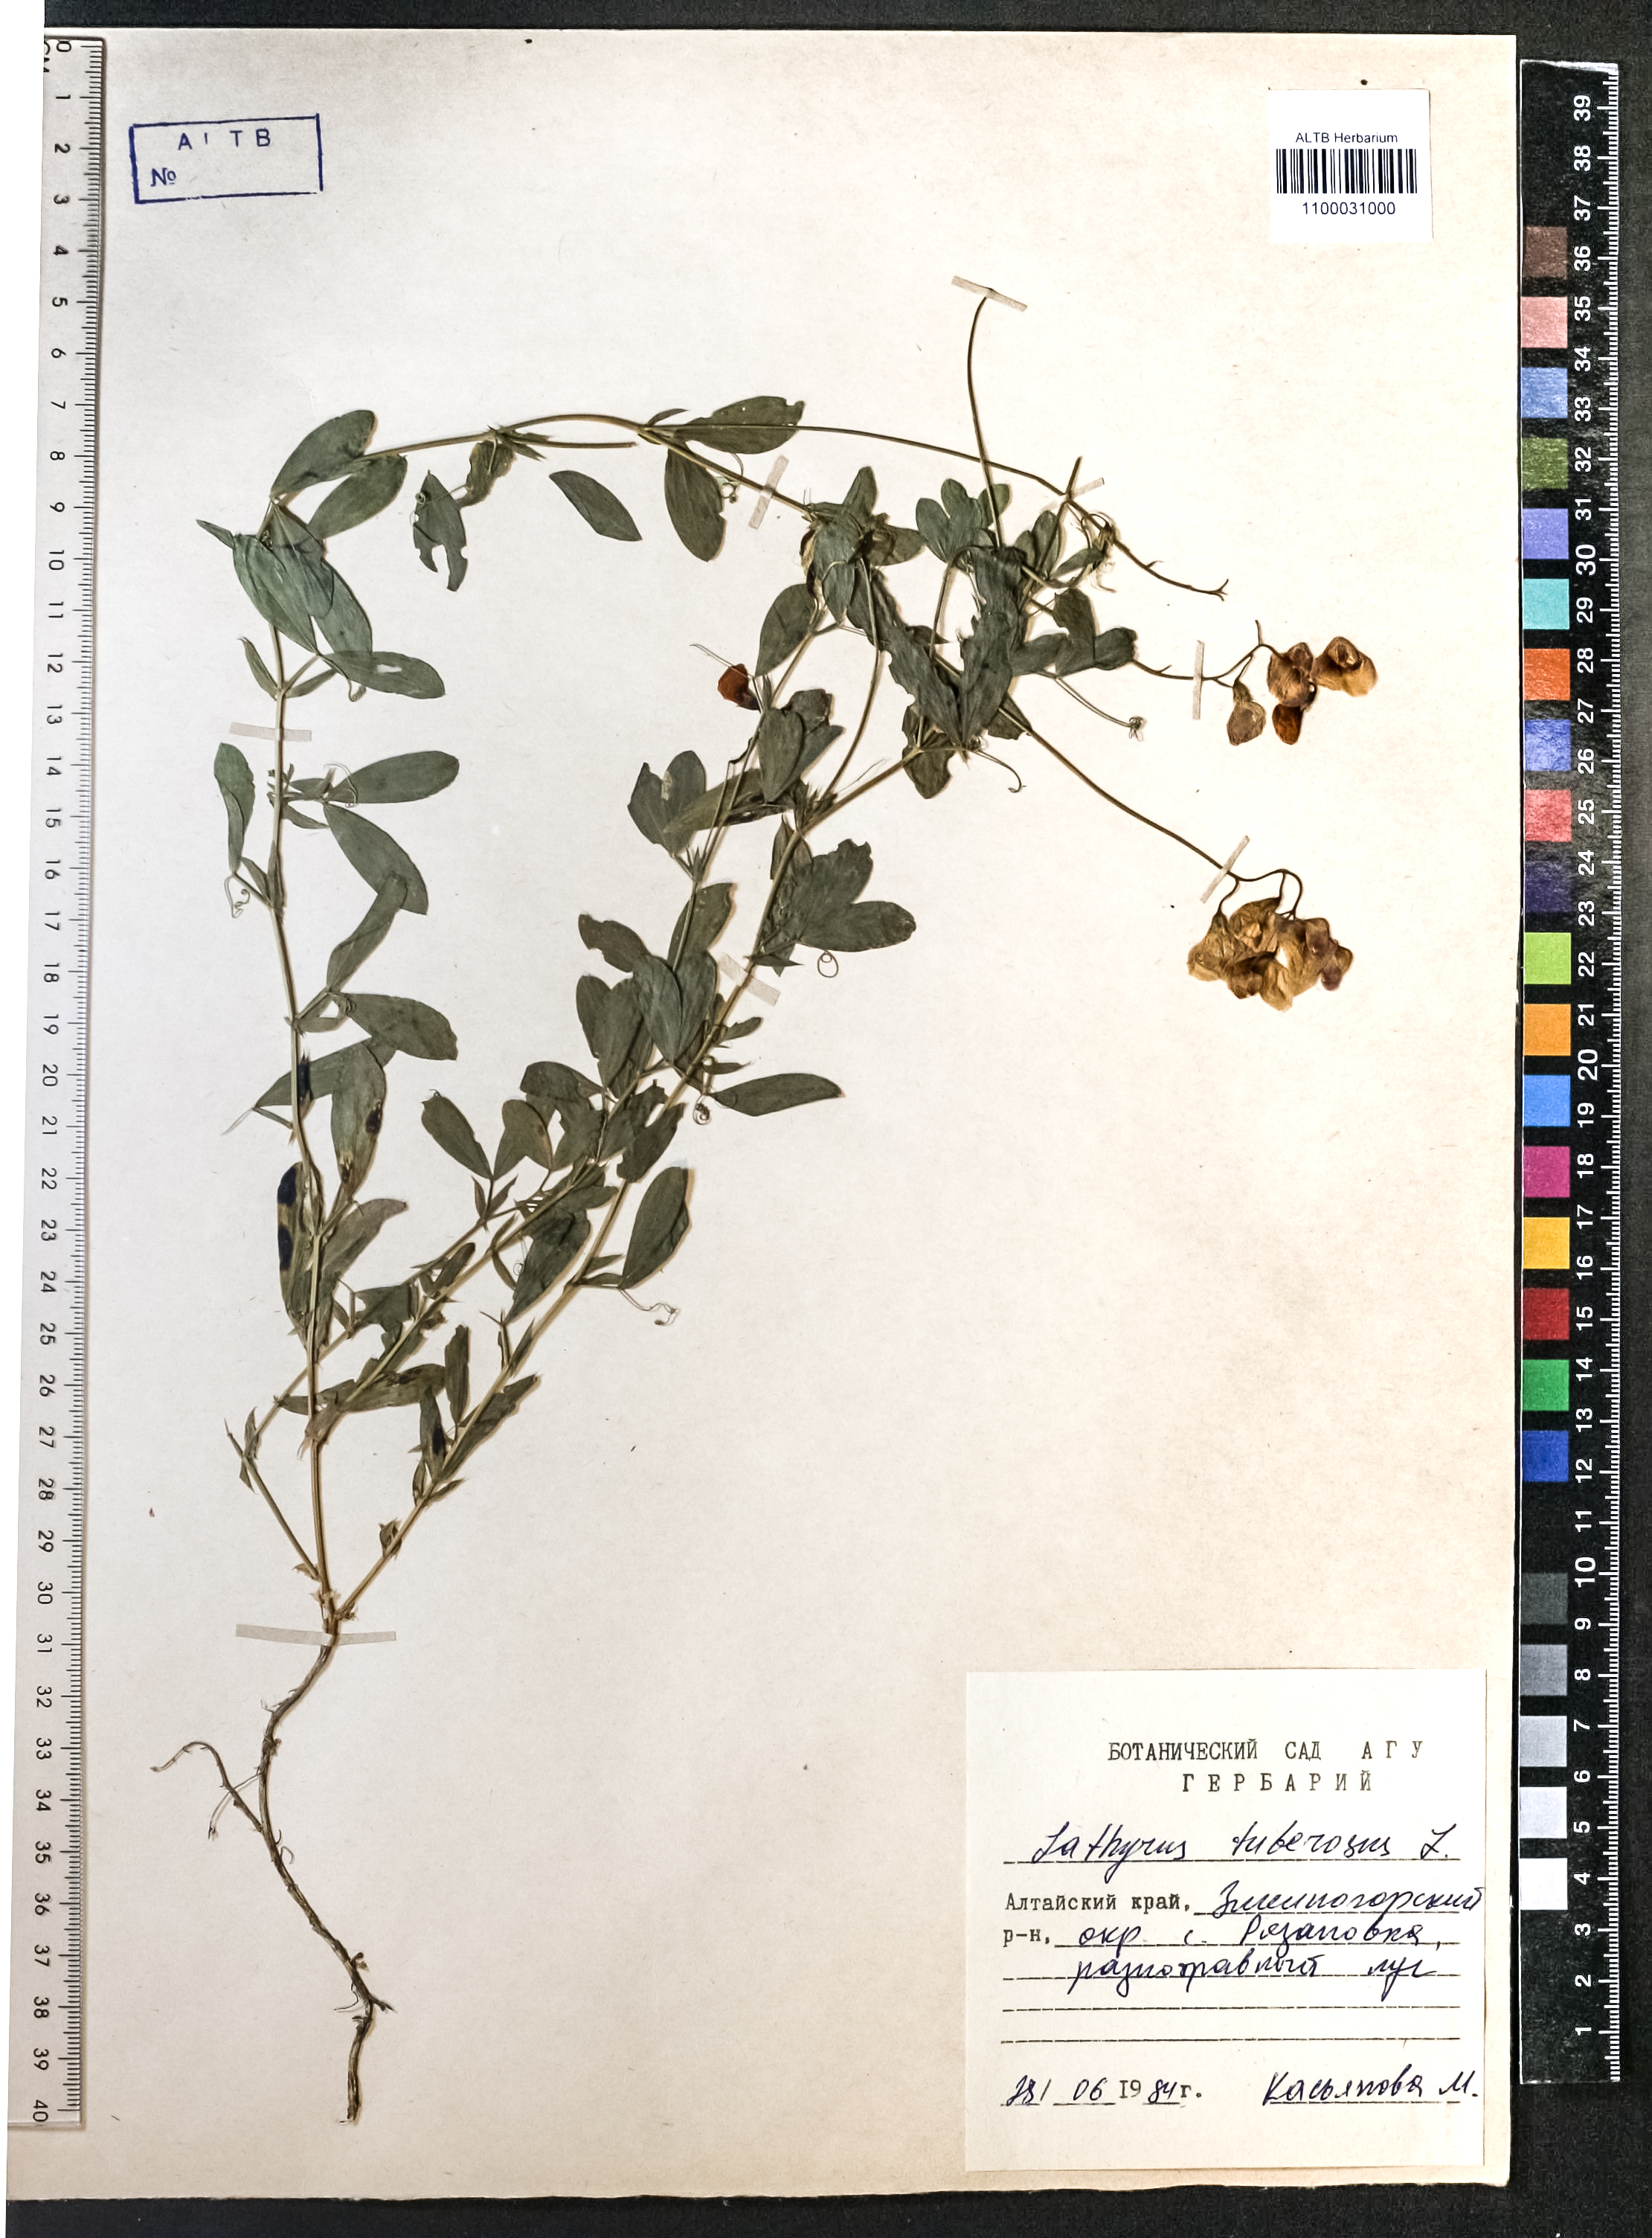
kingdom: Plantae
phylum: Tracheophyta
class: Magnoliopsida
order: Fabales
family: Fabaceae
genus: Lathyrus
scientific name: Lathyrus tuberosus
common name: Tuberous pea
